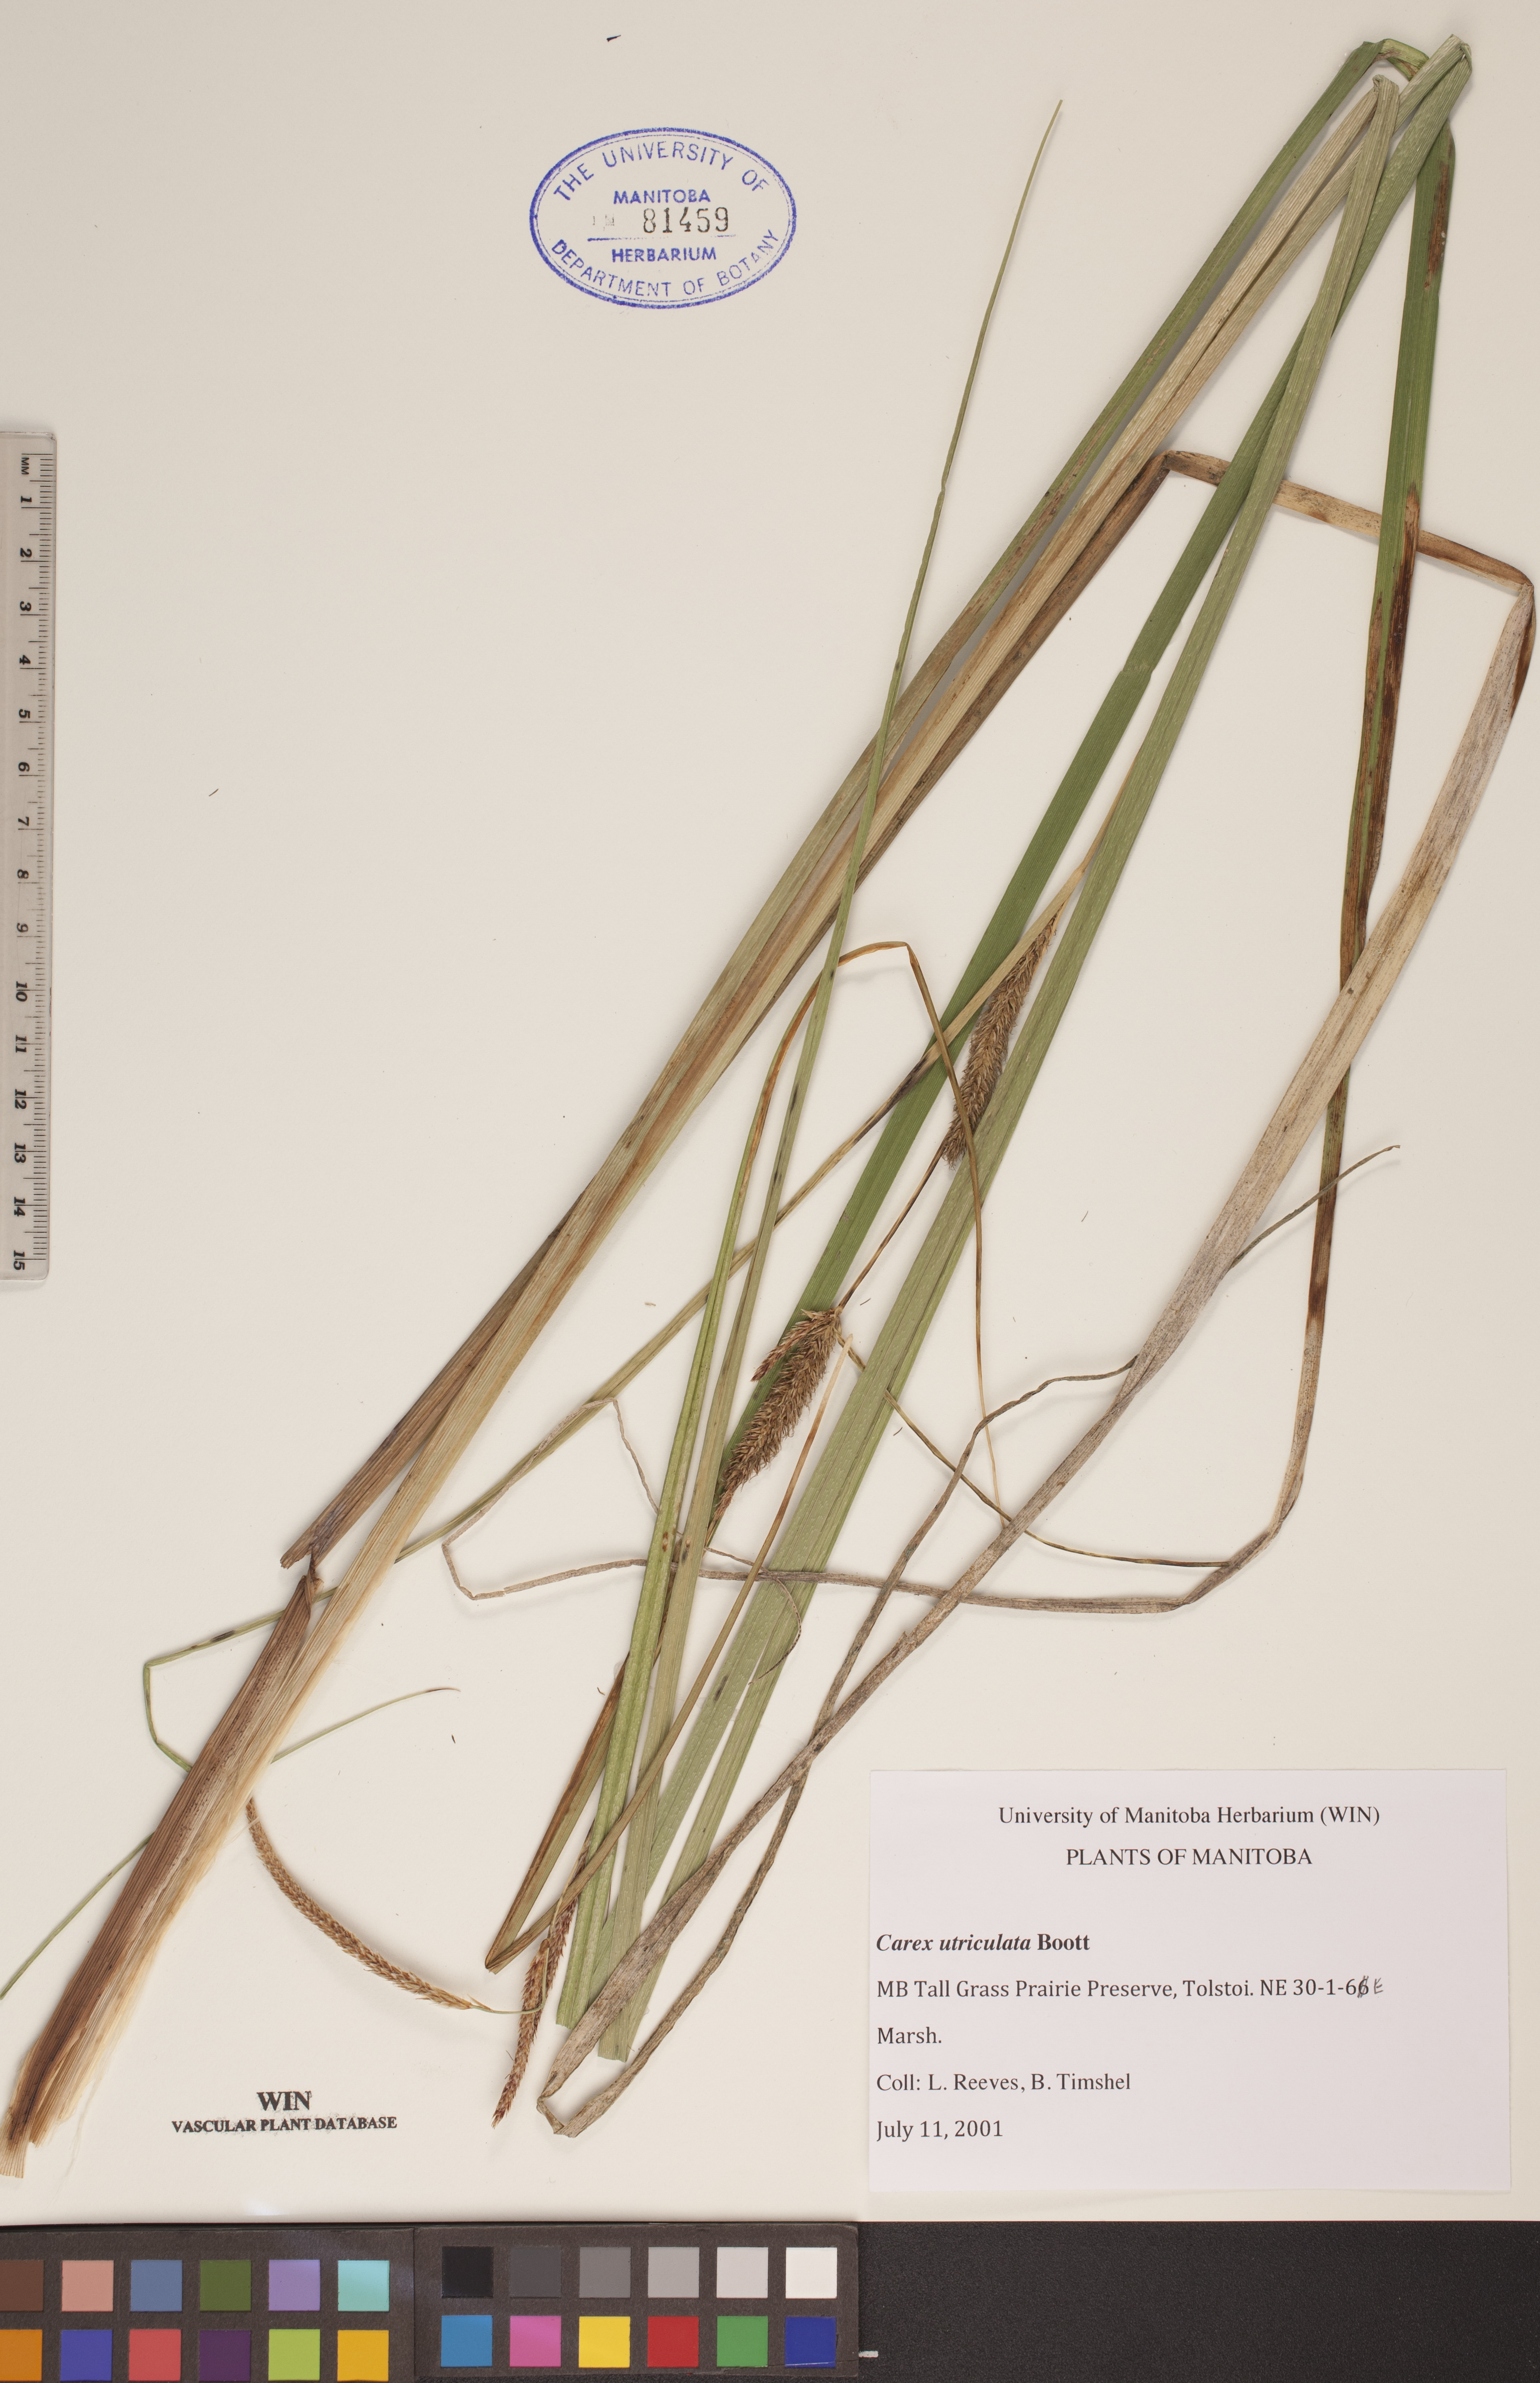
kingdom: Plantae
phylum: Tracheophyta
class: Liliopsida
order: Poales
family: Cyperaceae
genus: Carex
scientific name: Carex utriculata
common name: Beaked sedge
